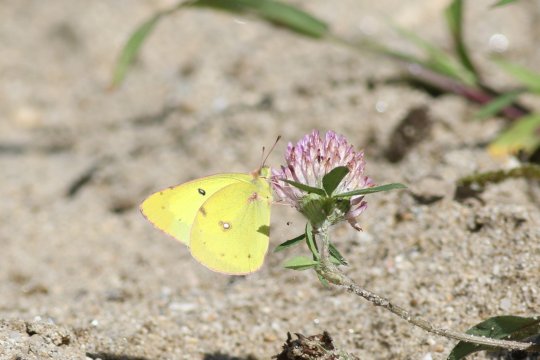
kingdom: Animalia
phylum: Arthropoda
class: Insecta
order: Lepidoptera
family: Pieridae
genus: Colias
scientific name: Colias eurytheme
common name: Orange Sulphur
